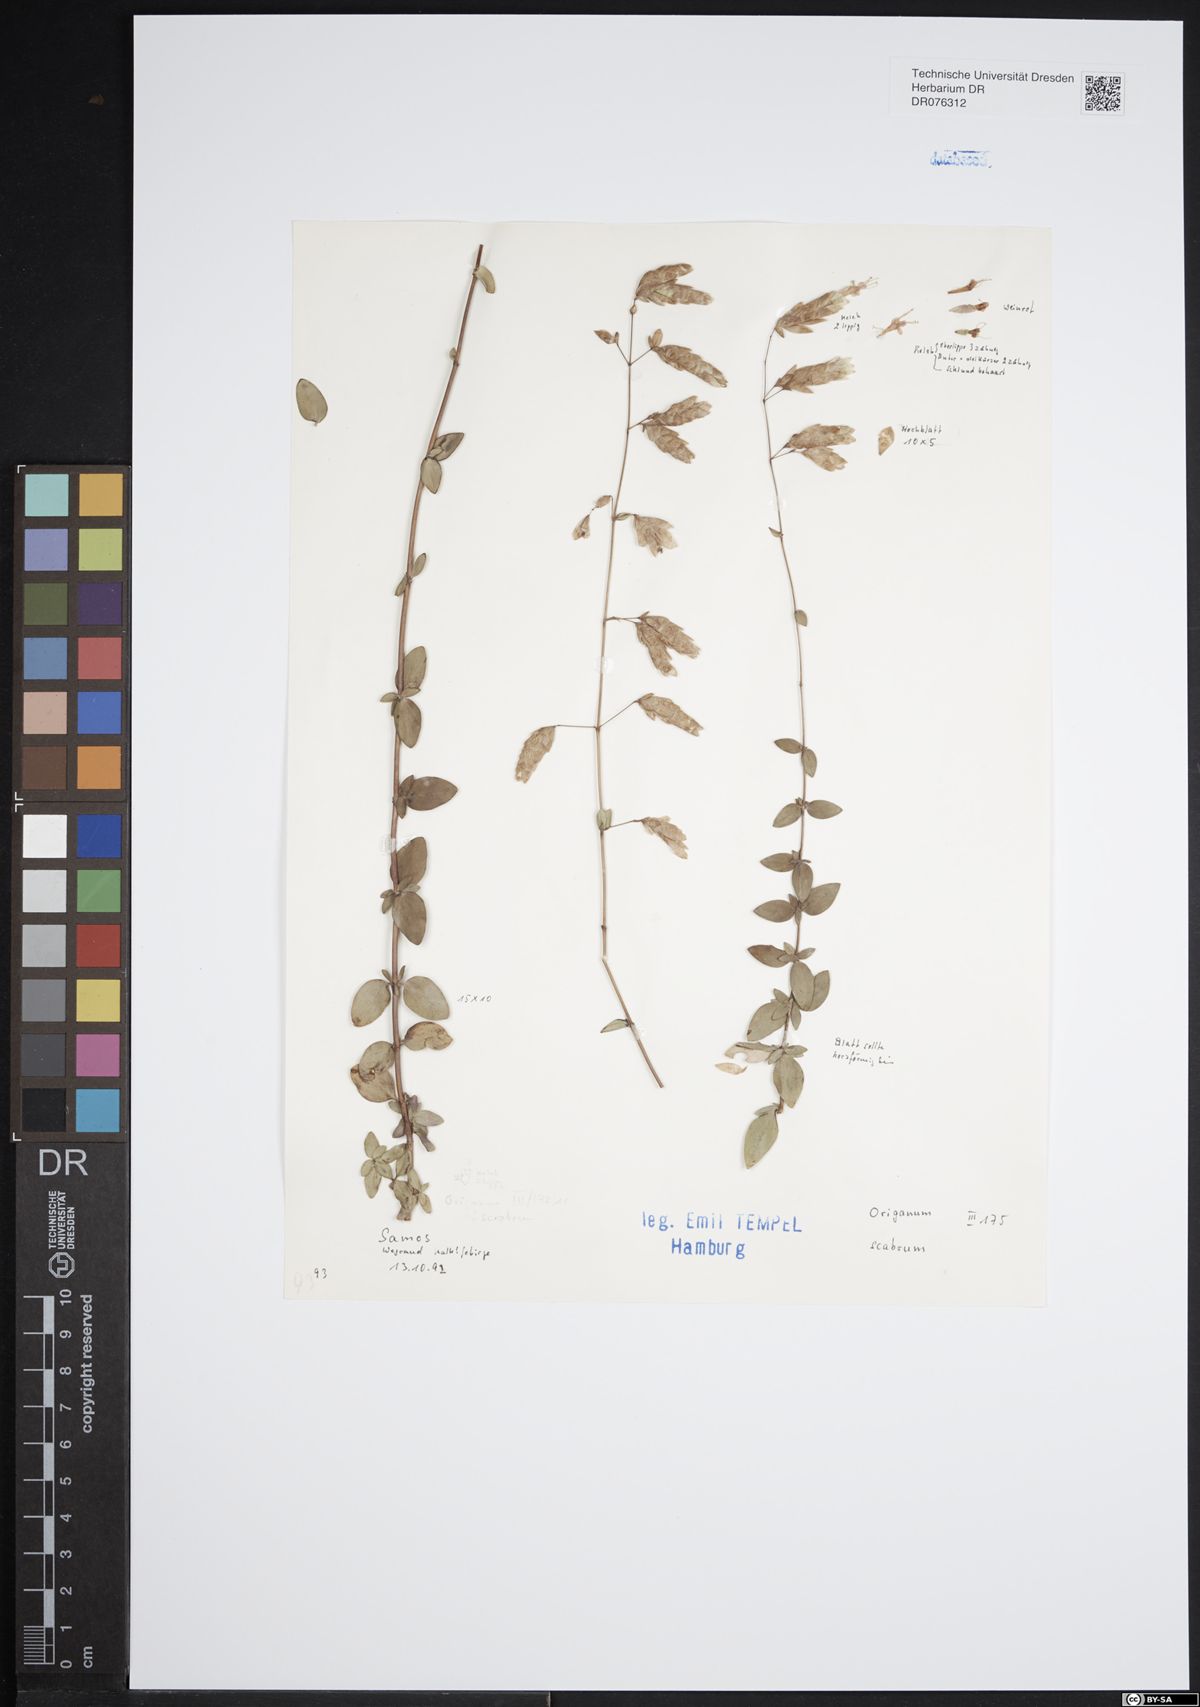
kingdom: Plantae
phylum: Tracheophyta
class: Magnoliopsida
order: Lamiales
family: Lamiaceae
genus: Origanum
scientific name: Origanum scabrum
